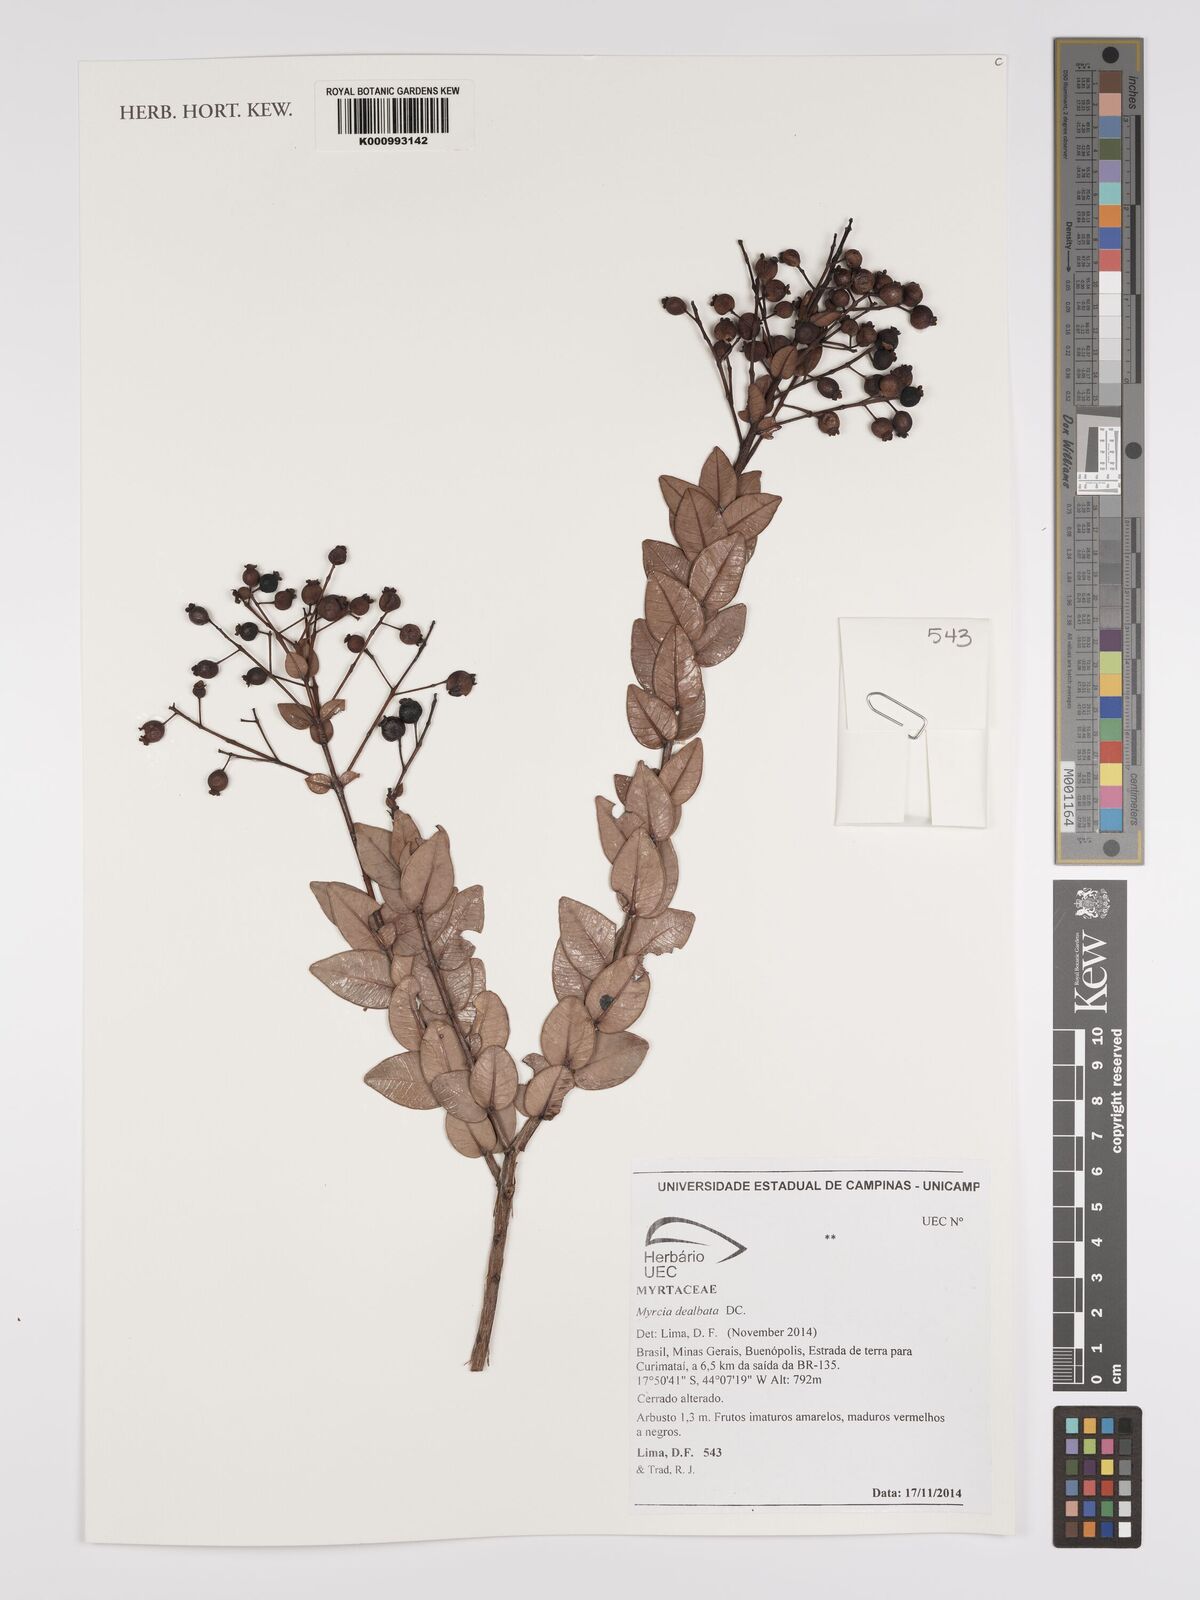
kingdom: Plantae
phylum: Tracheophyta
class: Magnoliopsida
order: Myrtales
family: Myrtaceae
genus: Myrcia
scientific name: Myrcia guianensis
